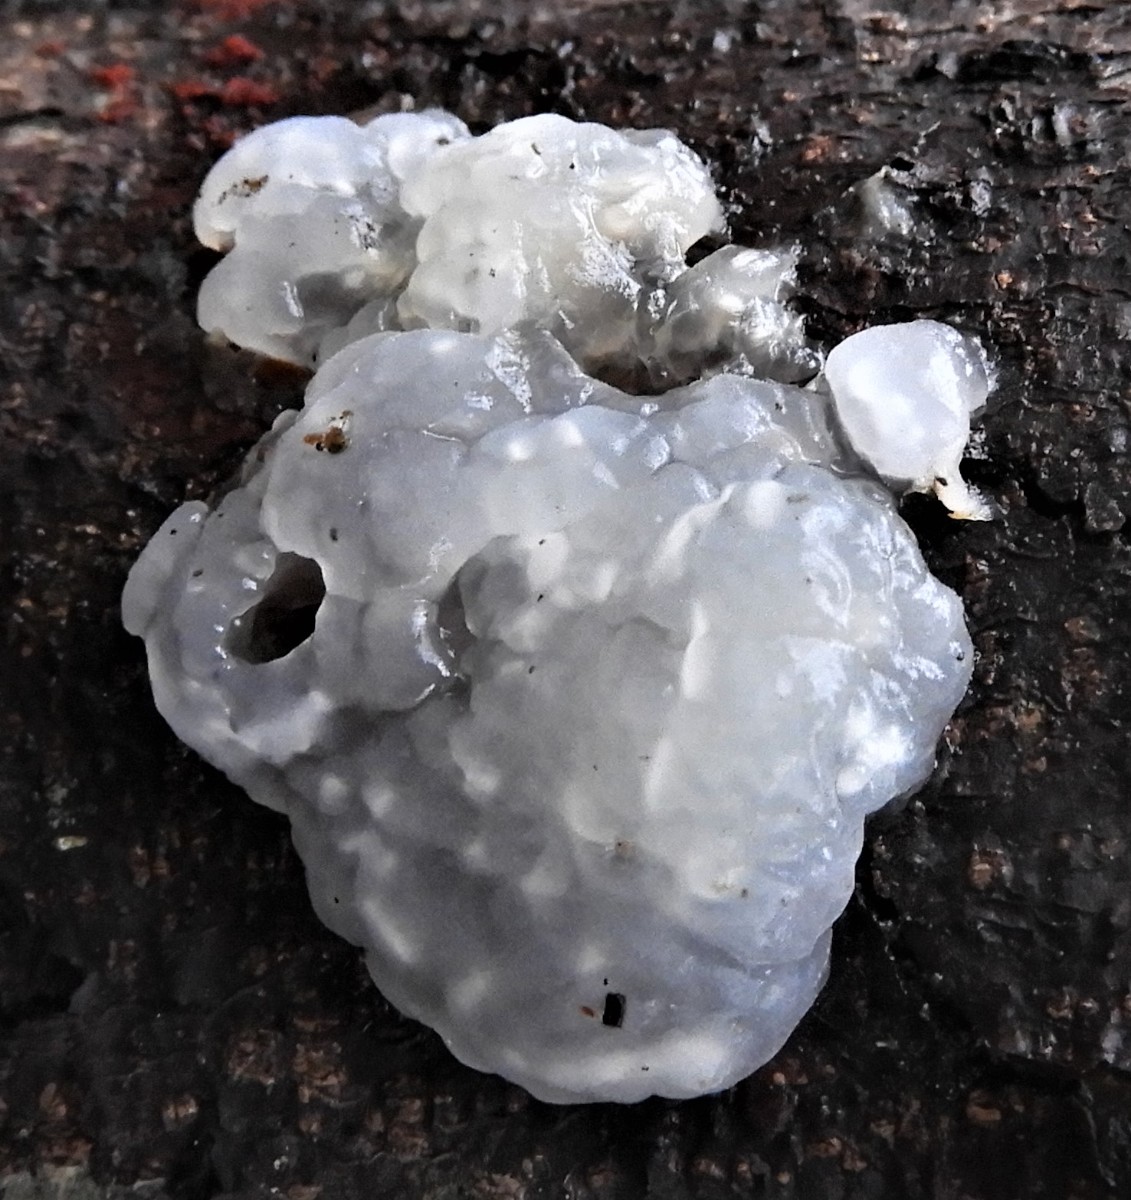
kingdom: Fungi
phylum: Basidiomycota
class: Agaricomycetes
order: Auriculariales
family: Hyaloriaceae
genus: Myxarium
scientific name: Myxarium nucleatum
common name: klar bævretop
